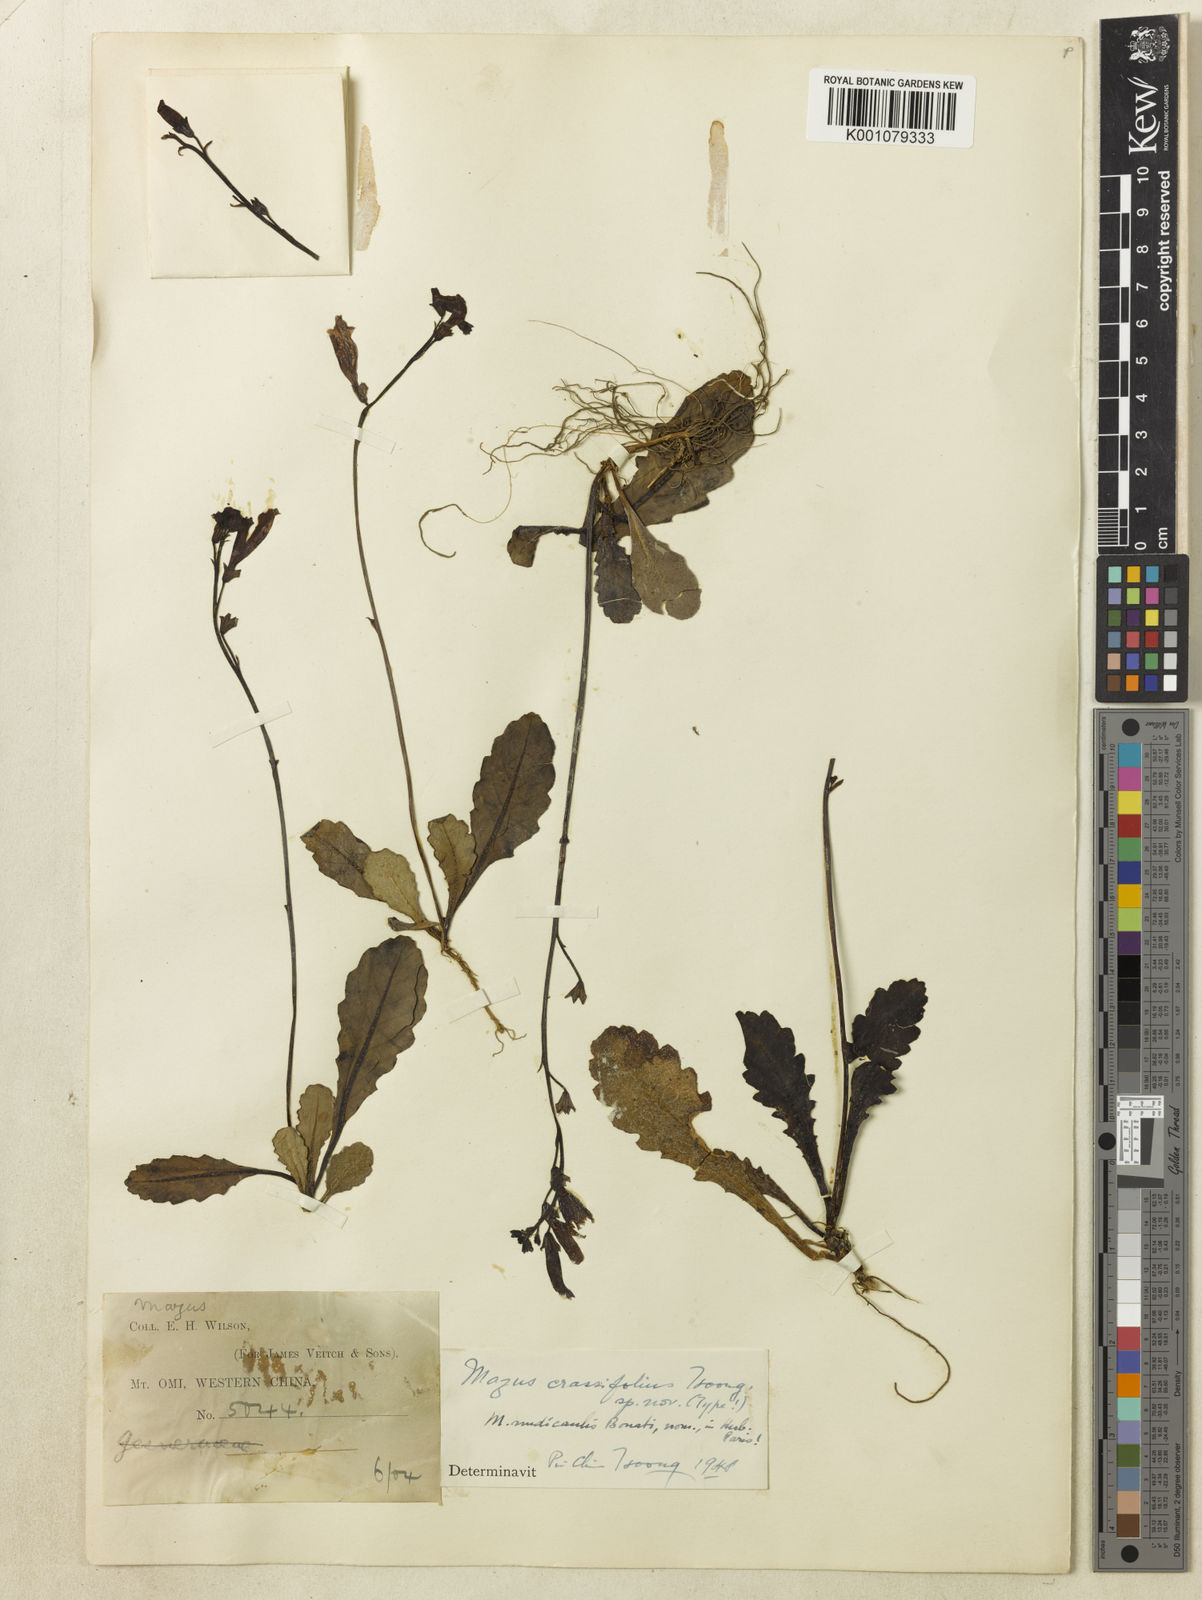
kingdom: Plantae
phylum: Tracheophyta
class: Magnoliopsida
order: Lamiales
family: Mazaceae
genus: Mazus
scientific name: Mazus omeiensis
